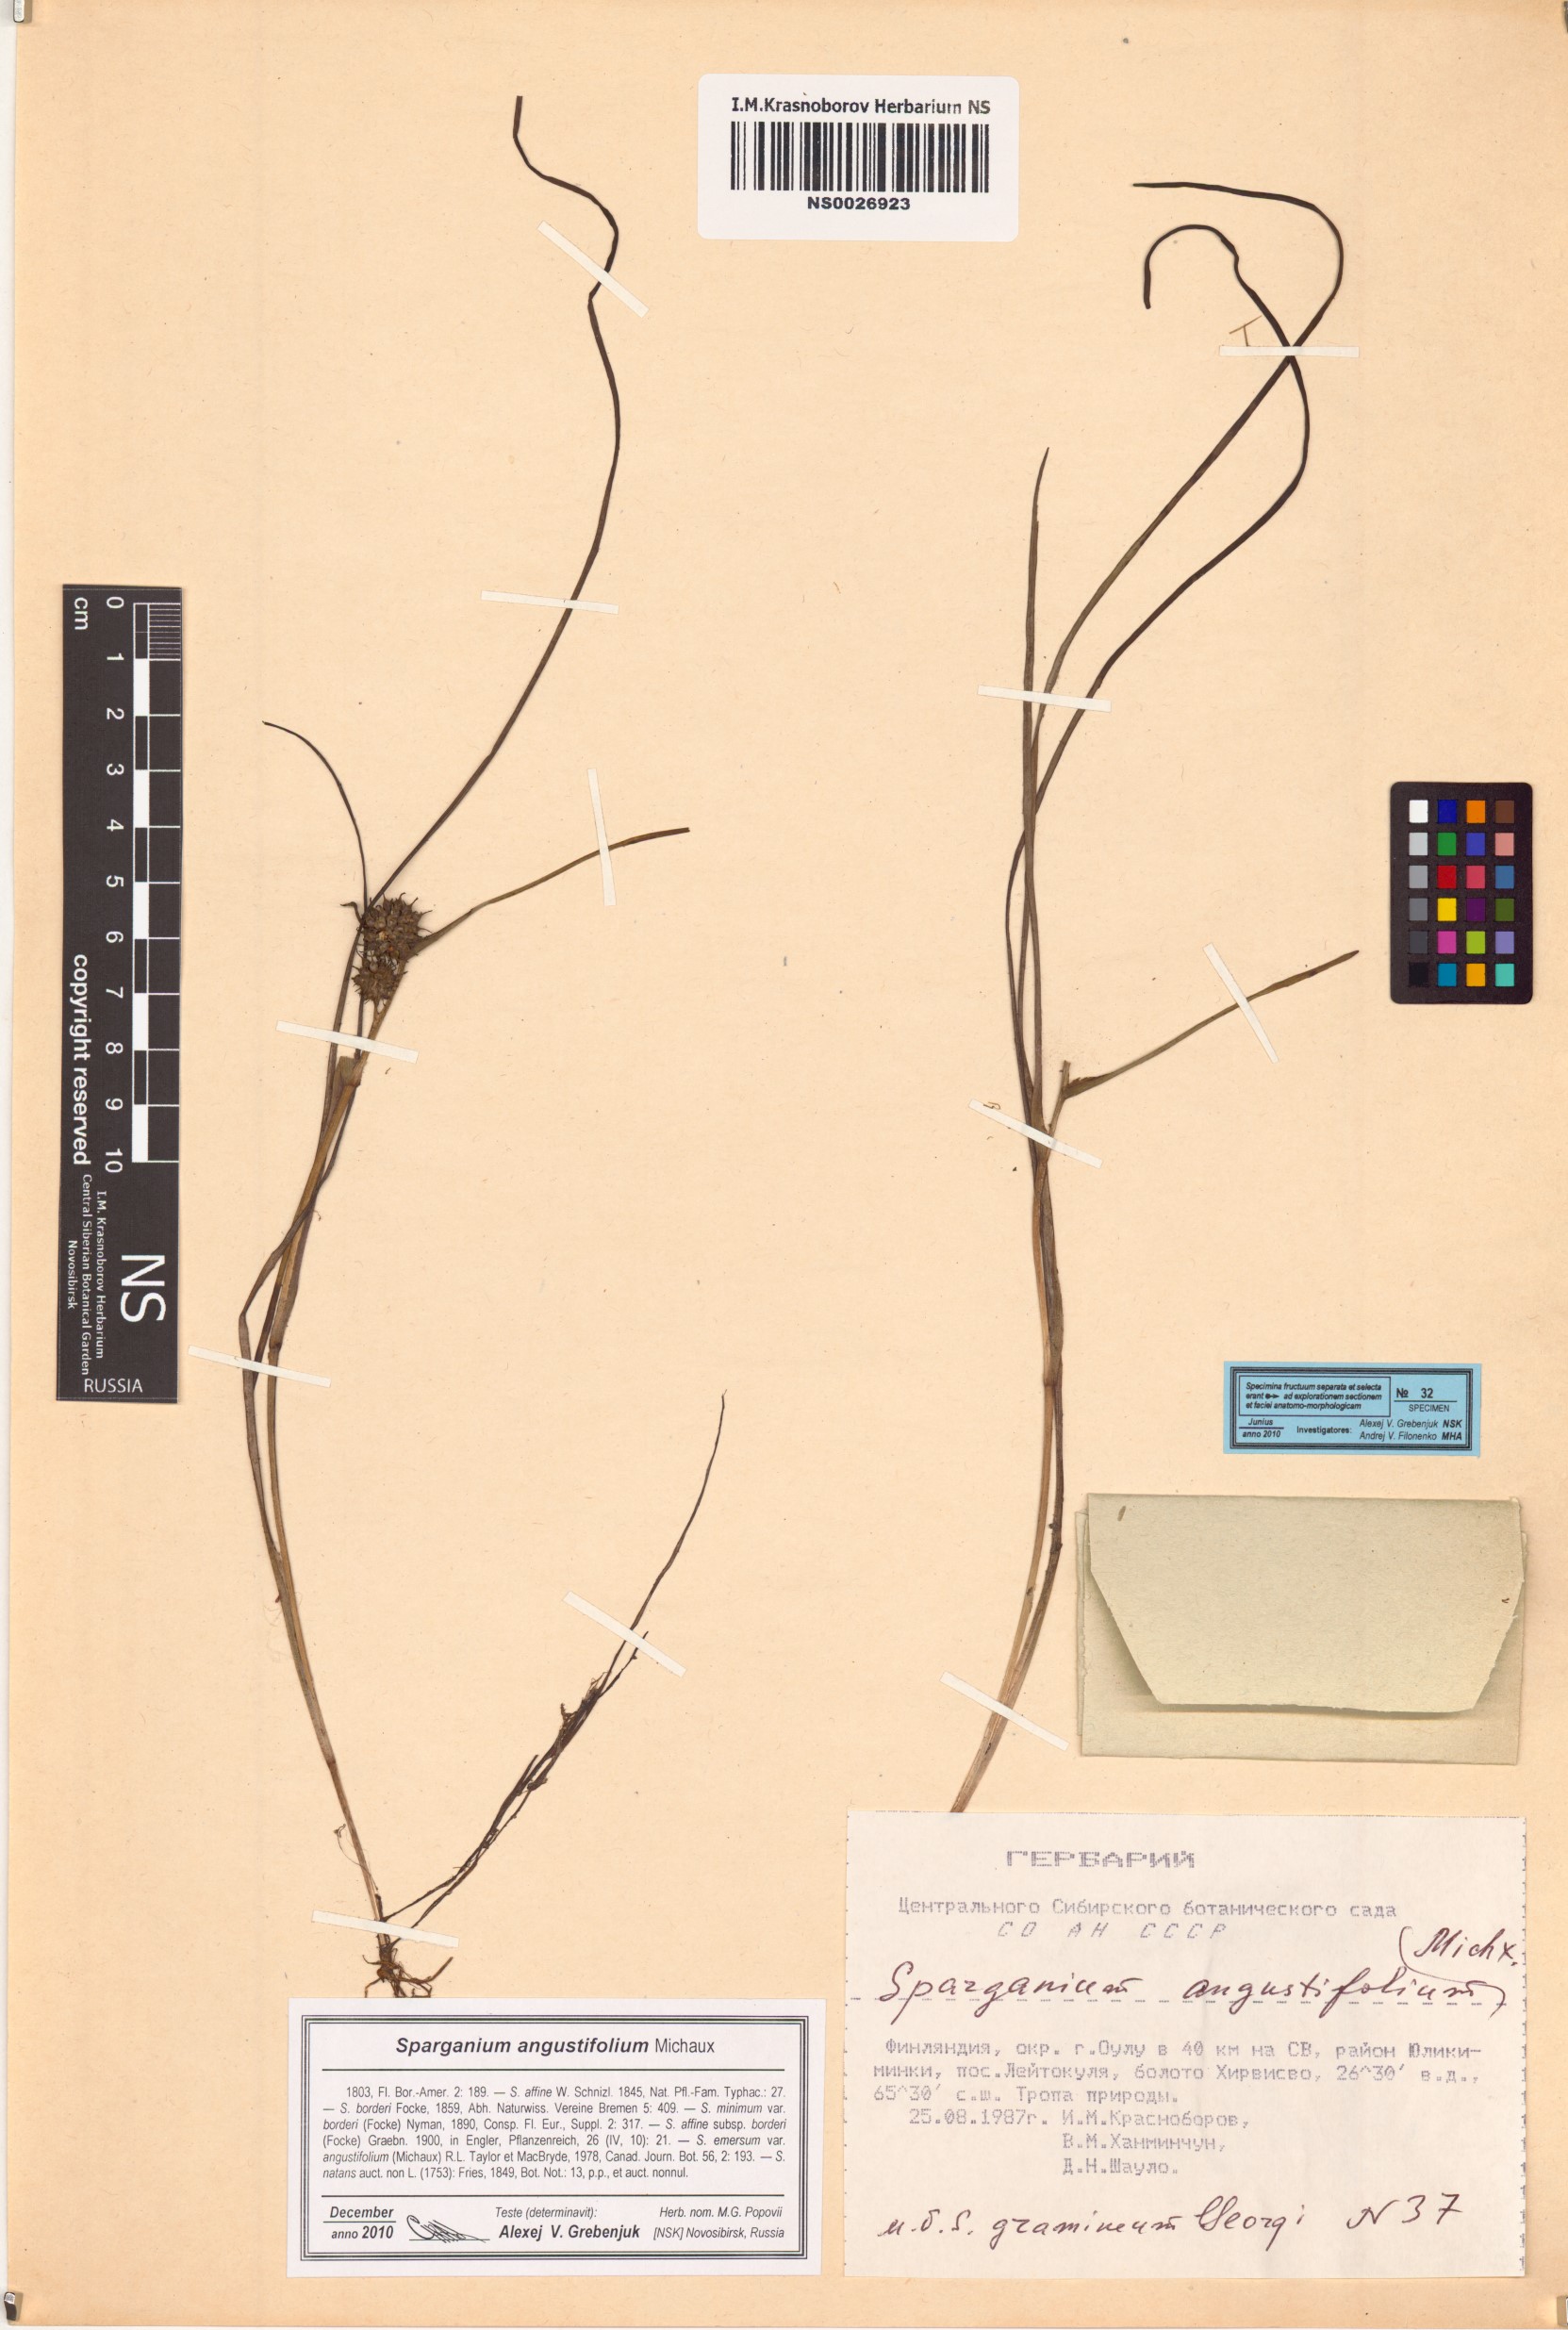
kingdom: Plantae
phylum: Tracheophyta
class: Liliopsida
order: Poales
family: Typhaceae
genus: Sparganium
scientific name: Sparganium angustifolium
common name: Floating bur-reed
